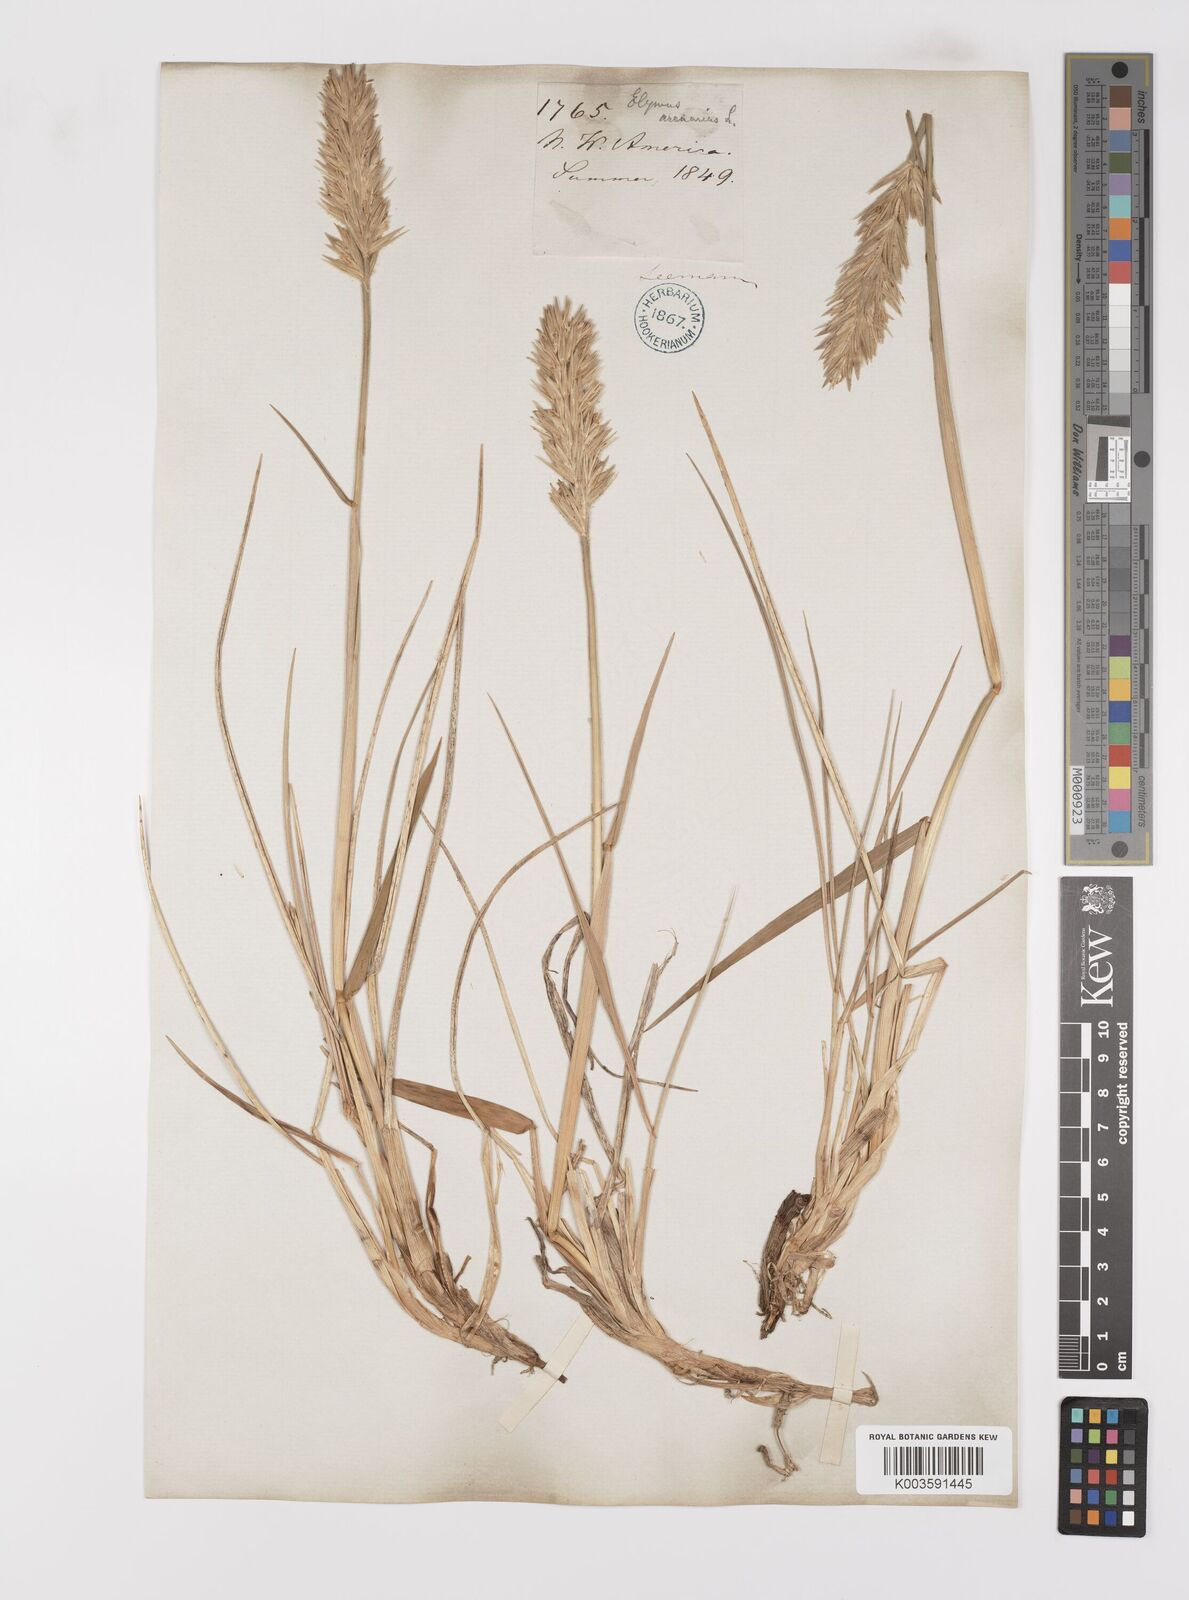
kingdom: Plantae
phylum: Tracheophyta
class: Liliopsida
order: Poales
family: Poaceae
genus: Leymus
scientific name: Leymus mollis
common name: American dune grass
